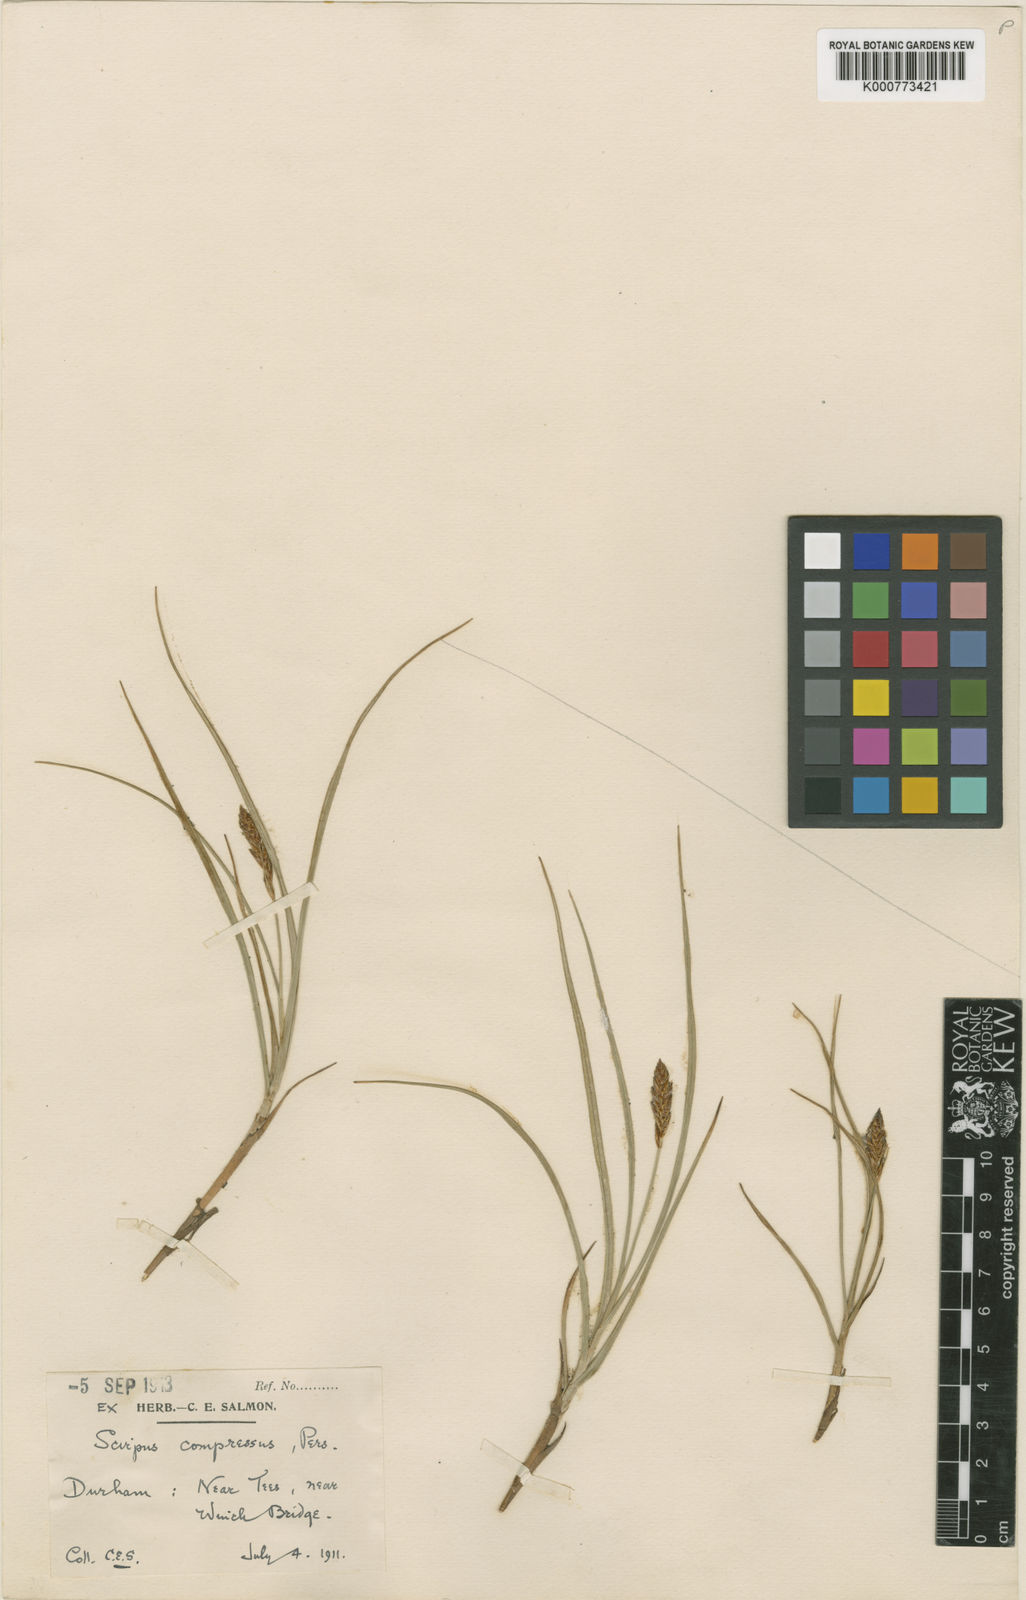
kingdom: Plantae
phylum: Tracheophyta
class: Liliopsida
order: Poales
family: Cyperaceae
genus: Blysmus
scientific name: Blysmus compressus
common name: Flat-sedge
